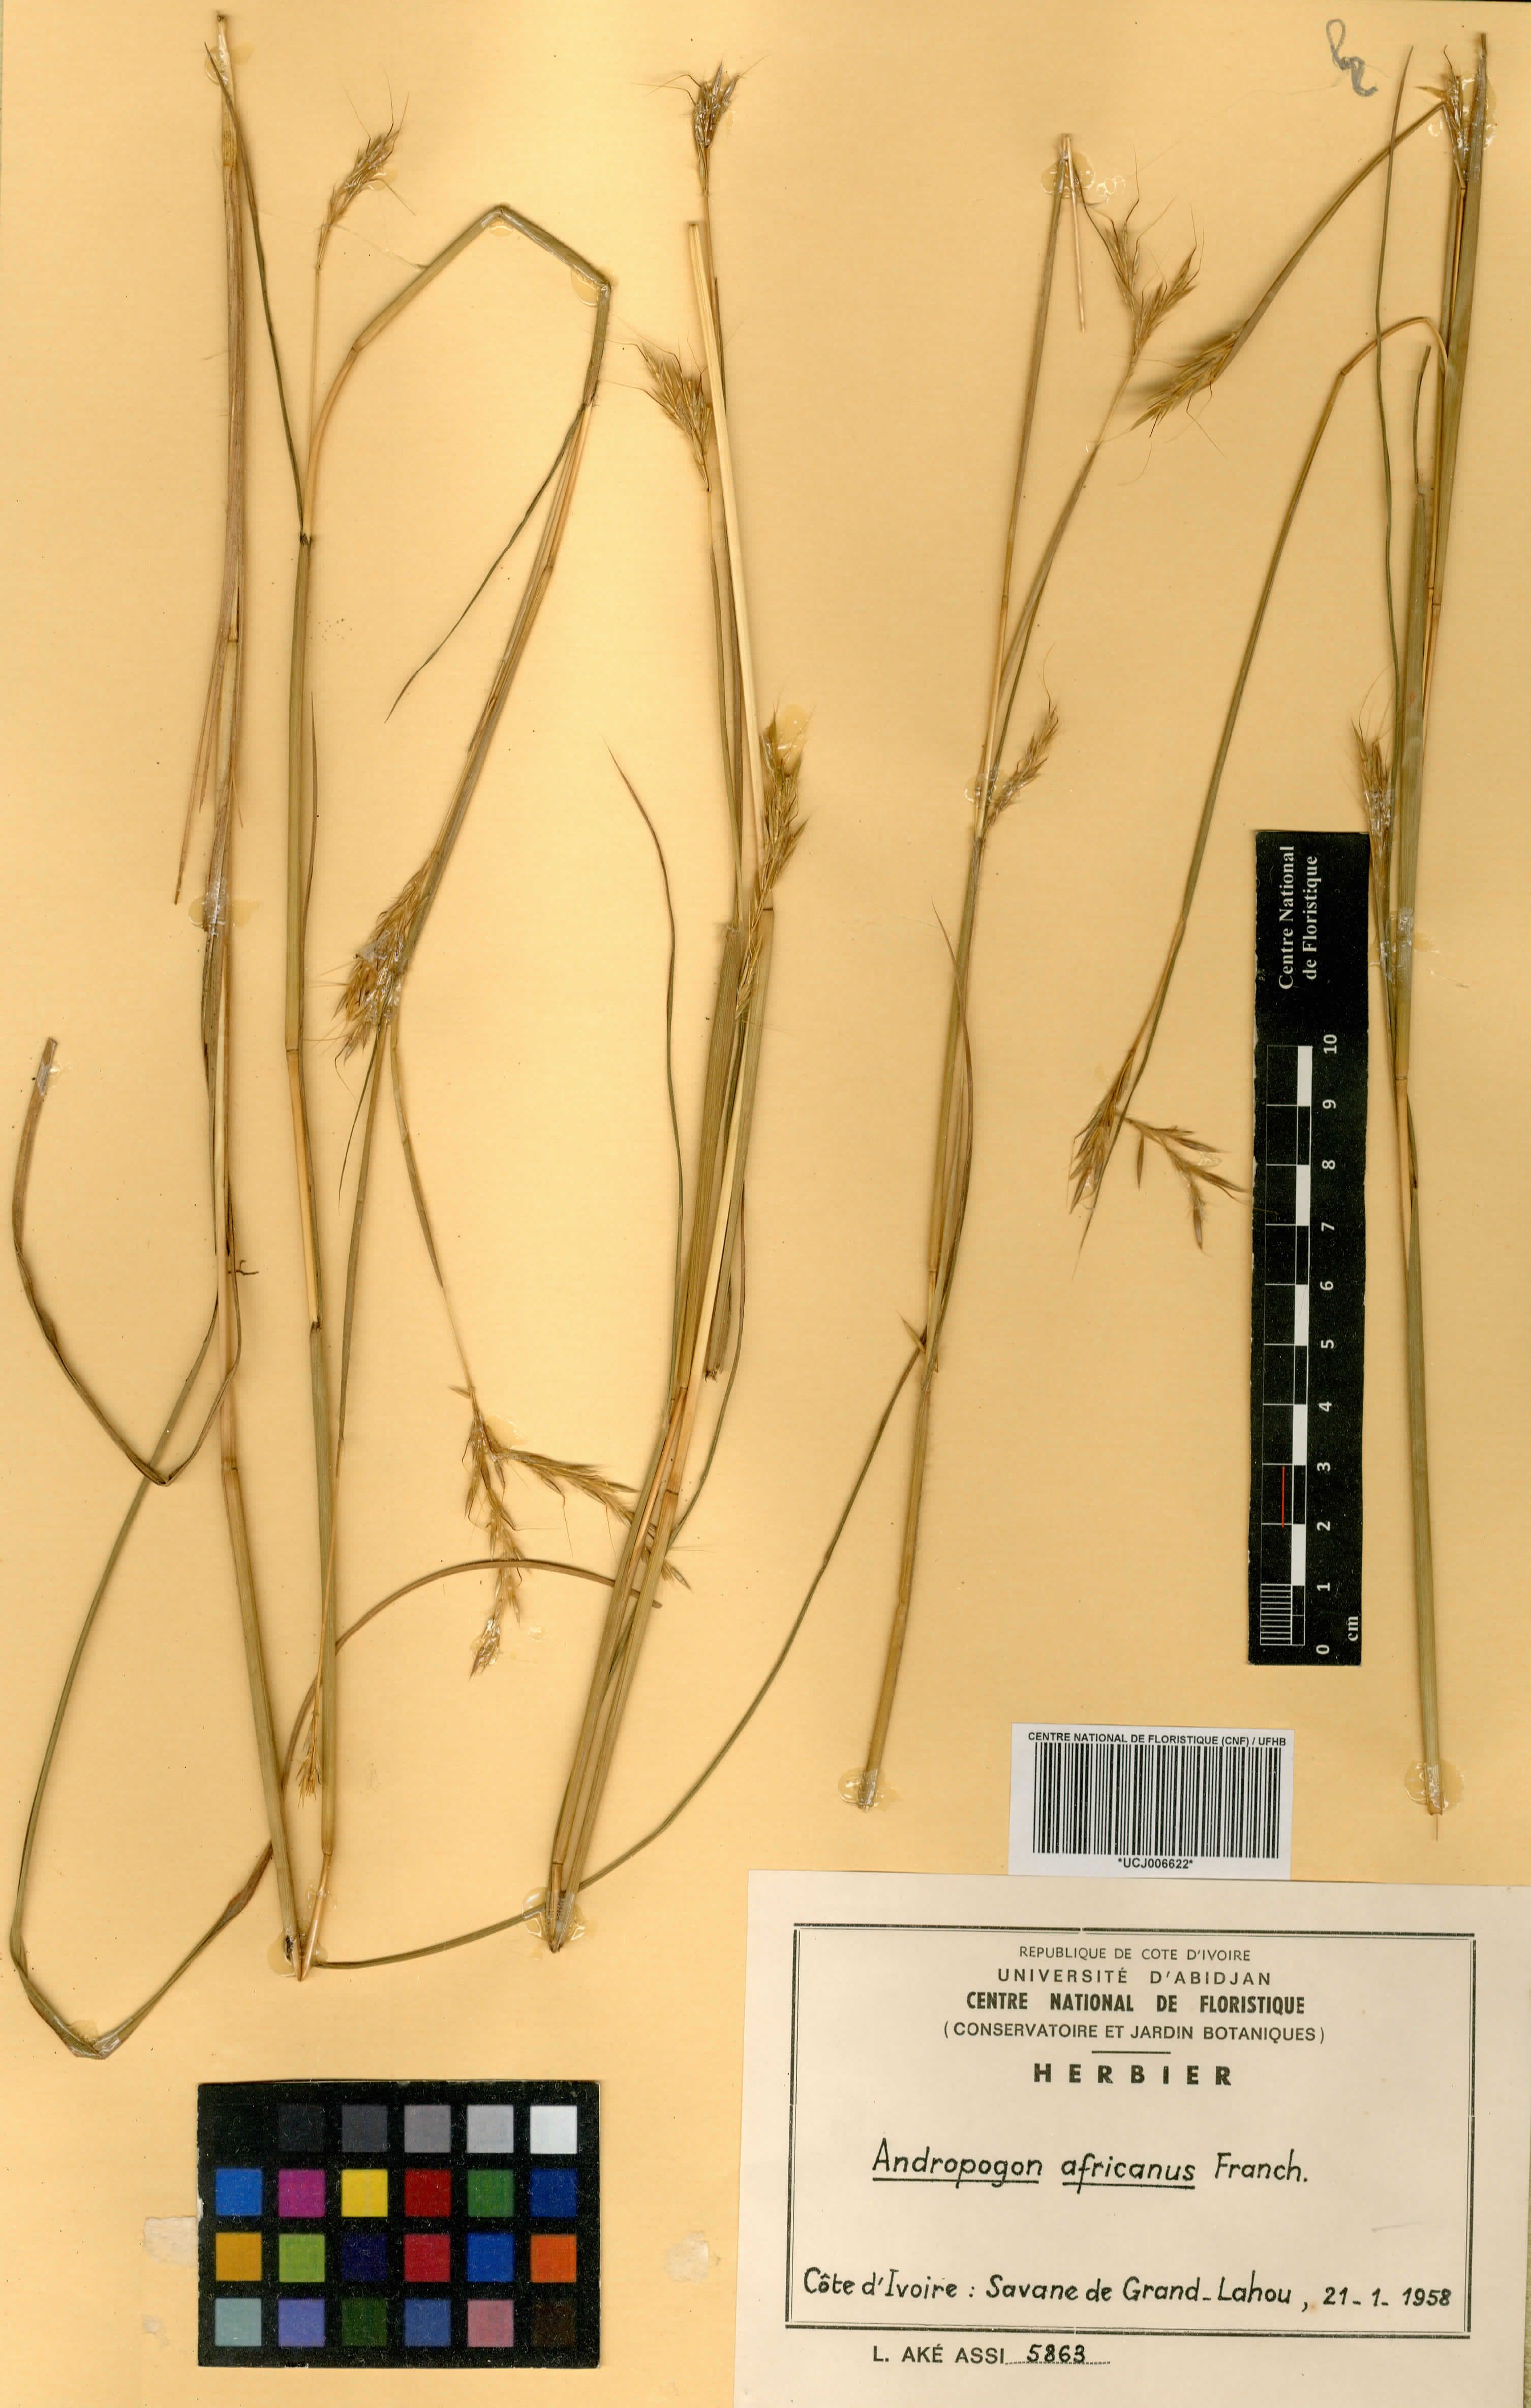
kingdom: Plantae
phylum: Tracheophyta
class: Liliopsida
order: Poales
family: Poaceae
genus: Andropogon
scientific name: Andropogon africanus
